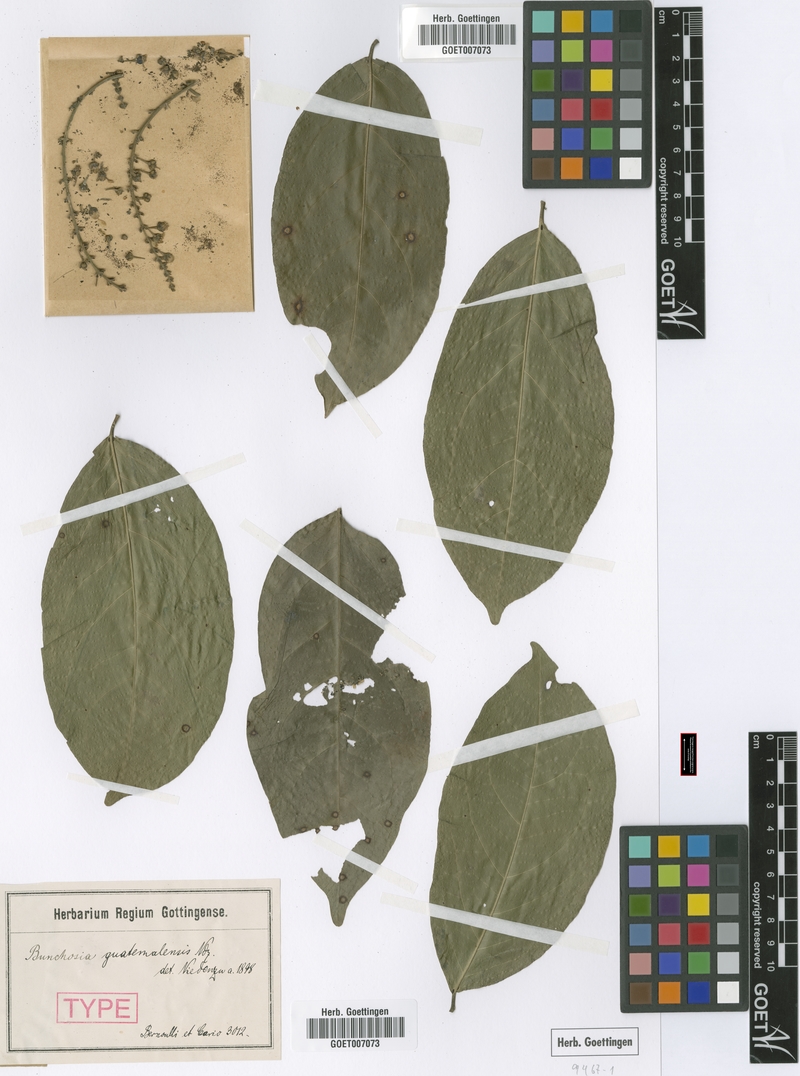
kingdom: Plantae
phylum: Tracheophyta
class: Magnoliopsida
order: Malpighiales
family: Malpighiaceae
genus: Bunchosia
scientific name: Bunchosia guatemalensis
